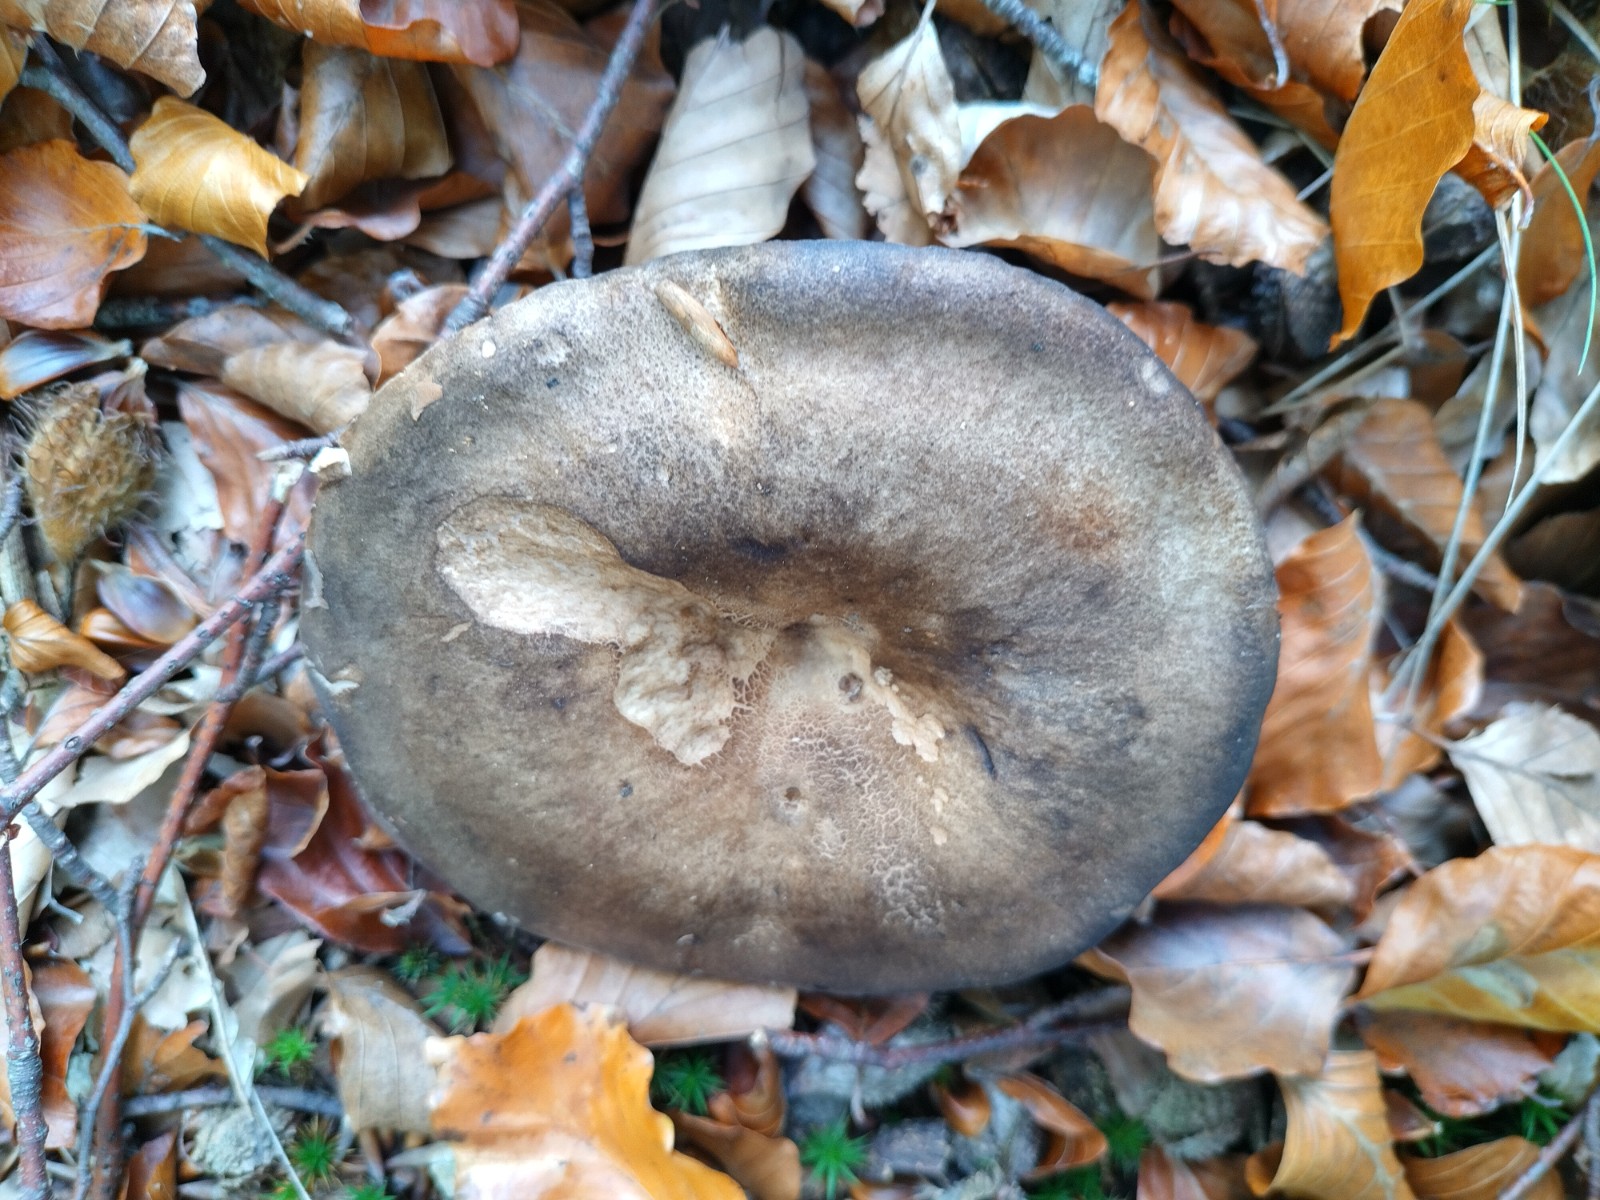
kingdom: Fungi
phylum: Basidiomycota
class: Agaricomycetes
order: Russulales
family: Russulaceae
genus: Russula
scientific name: Russula adusta
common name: sværtende skørhat
